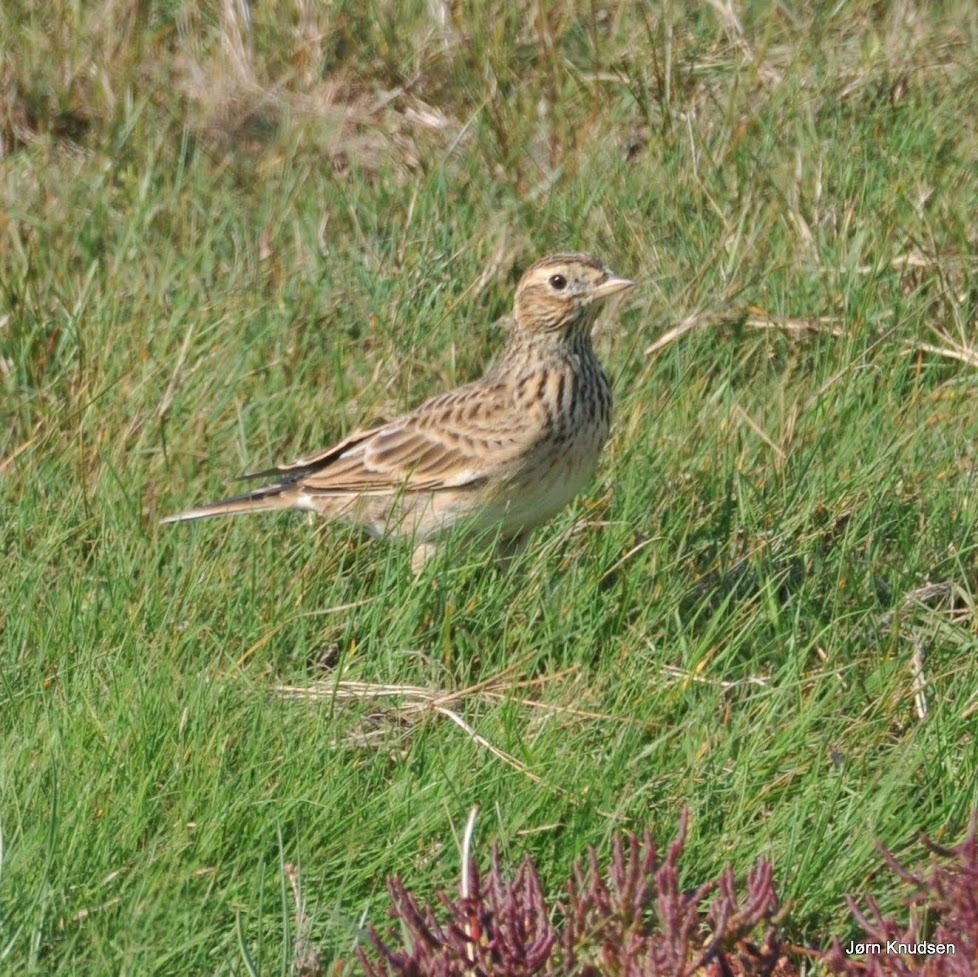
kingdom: Animalia
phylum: Chordata
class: Aves
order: Passeriformes
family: Alaudidae
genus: Alauda
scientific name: Alauda arvensis
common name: Sanglærke
